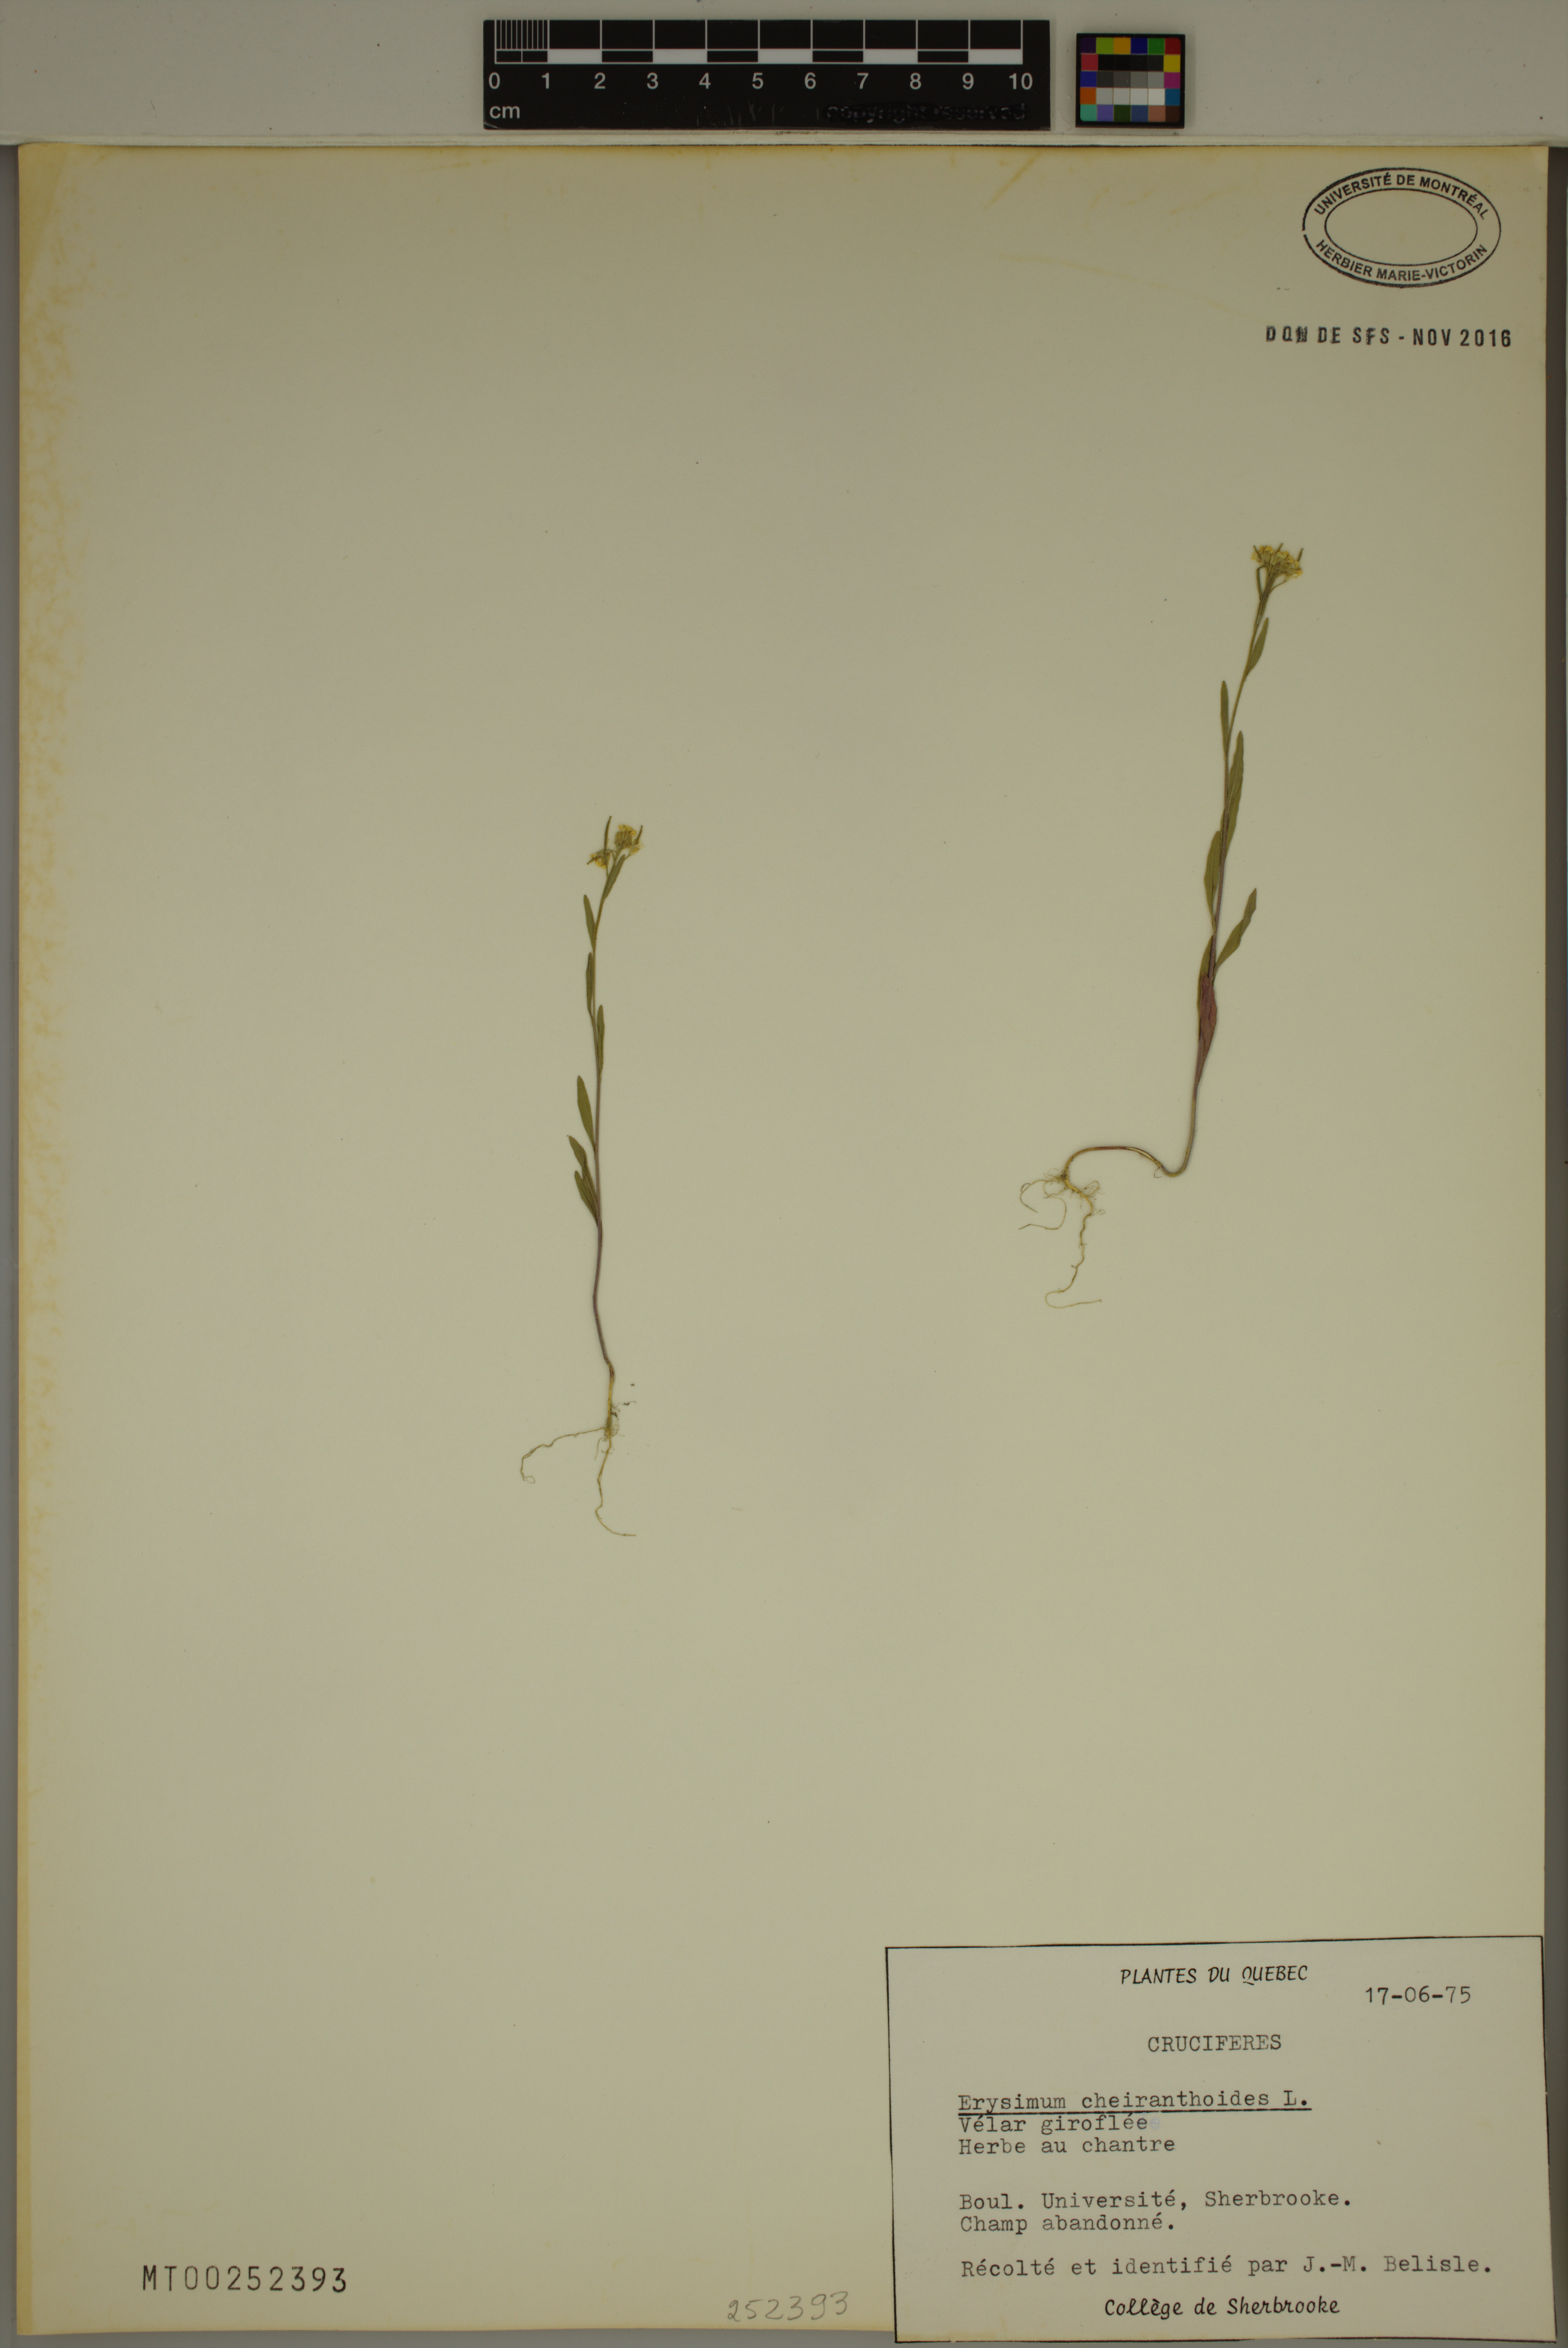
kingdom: Plantae
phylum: Tracheophyta
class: Magnoliopsida
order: Brassicales
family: Brassicaceae
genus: Erysimum
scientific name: Erysimum cheiranthoides
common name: Treacle mustard
